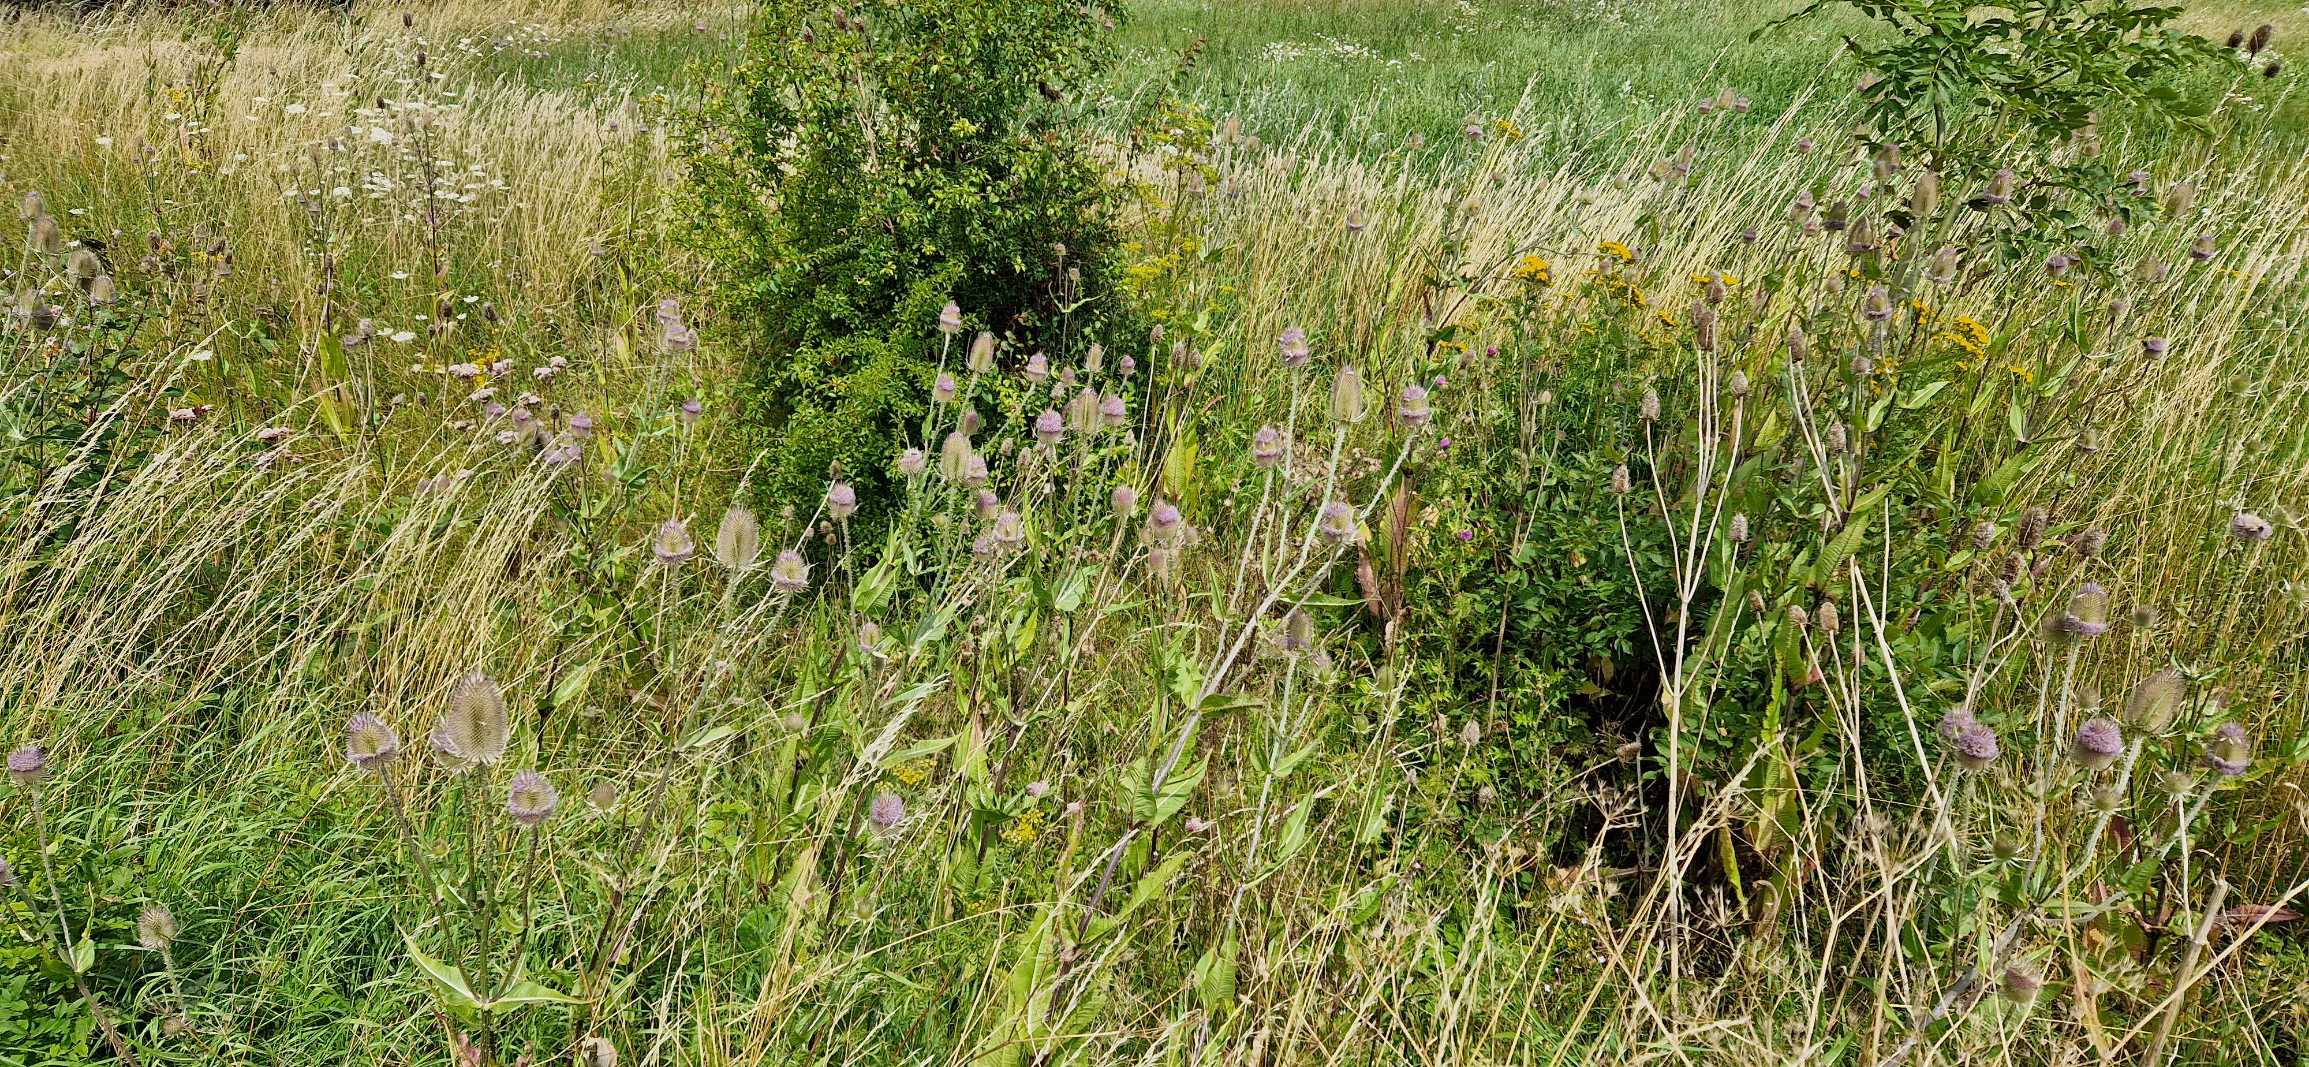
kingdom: Plantae
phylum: Tracheophyta
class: Magnoliopsida
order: Dipsacales
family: Caprifoliaceae
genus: Dipsacus
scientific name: Dipsacus fullonum
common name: Gærde-kartebolle
